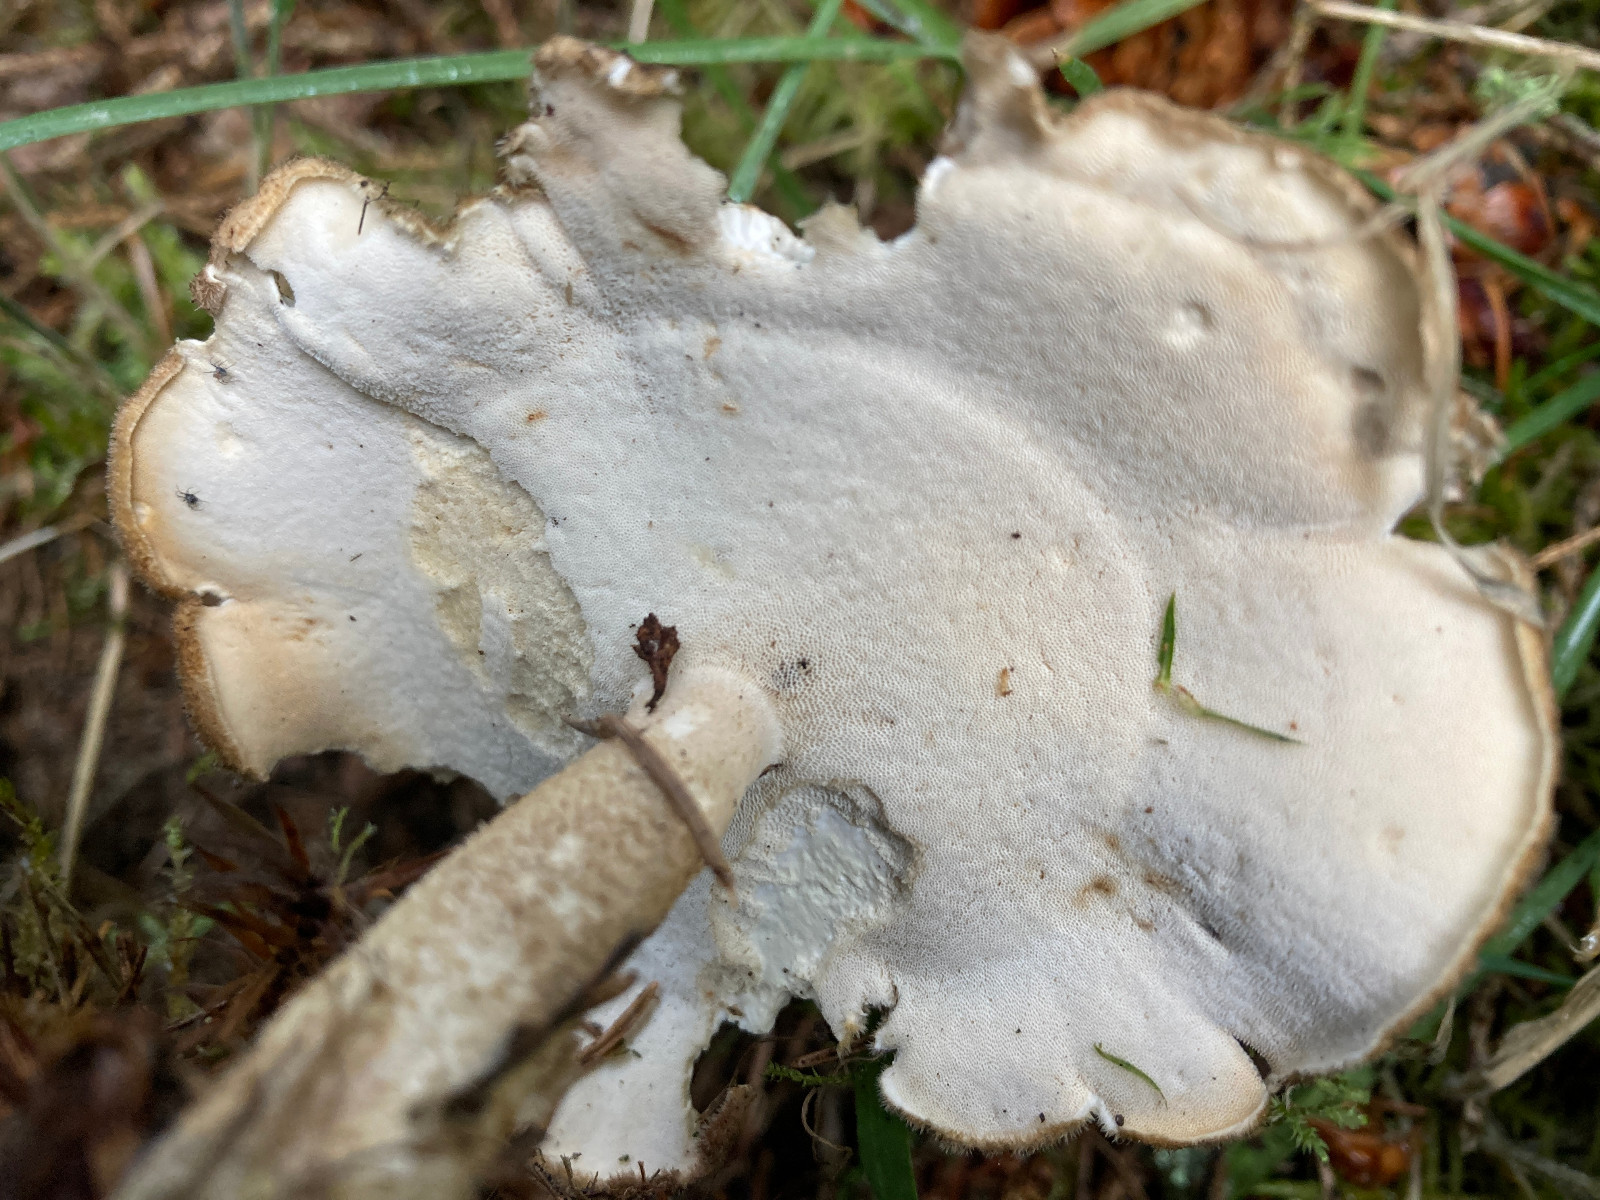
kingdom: Fungi
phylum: Basidiomycota
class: Agaricomycetes
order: Polyporales
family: Polyporaceae
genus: Lentinus
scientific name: Lentinus substrictus
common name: forårs-stilkporesvamp
